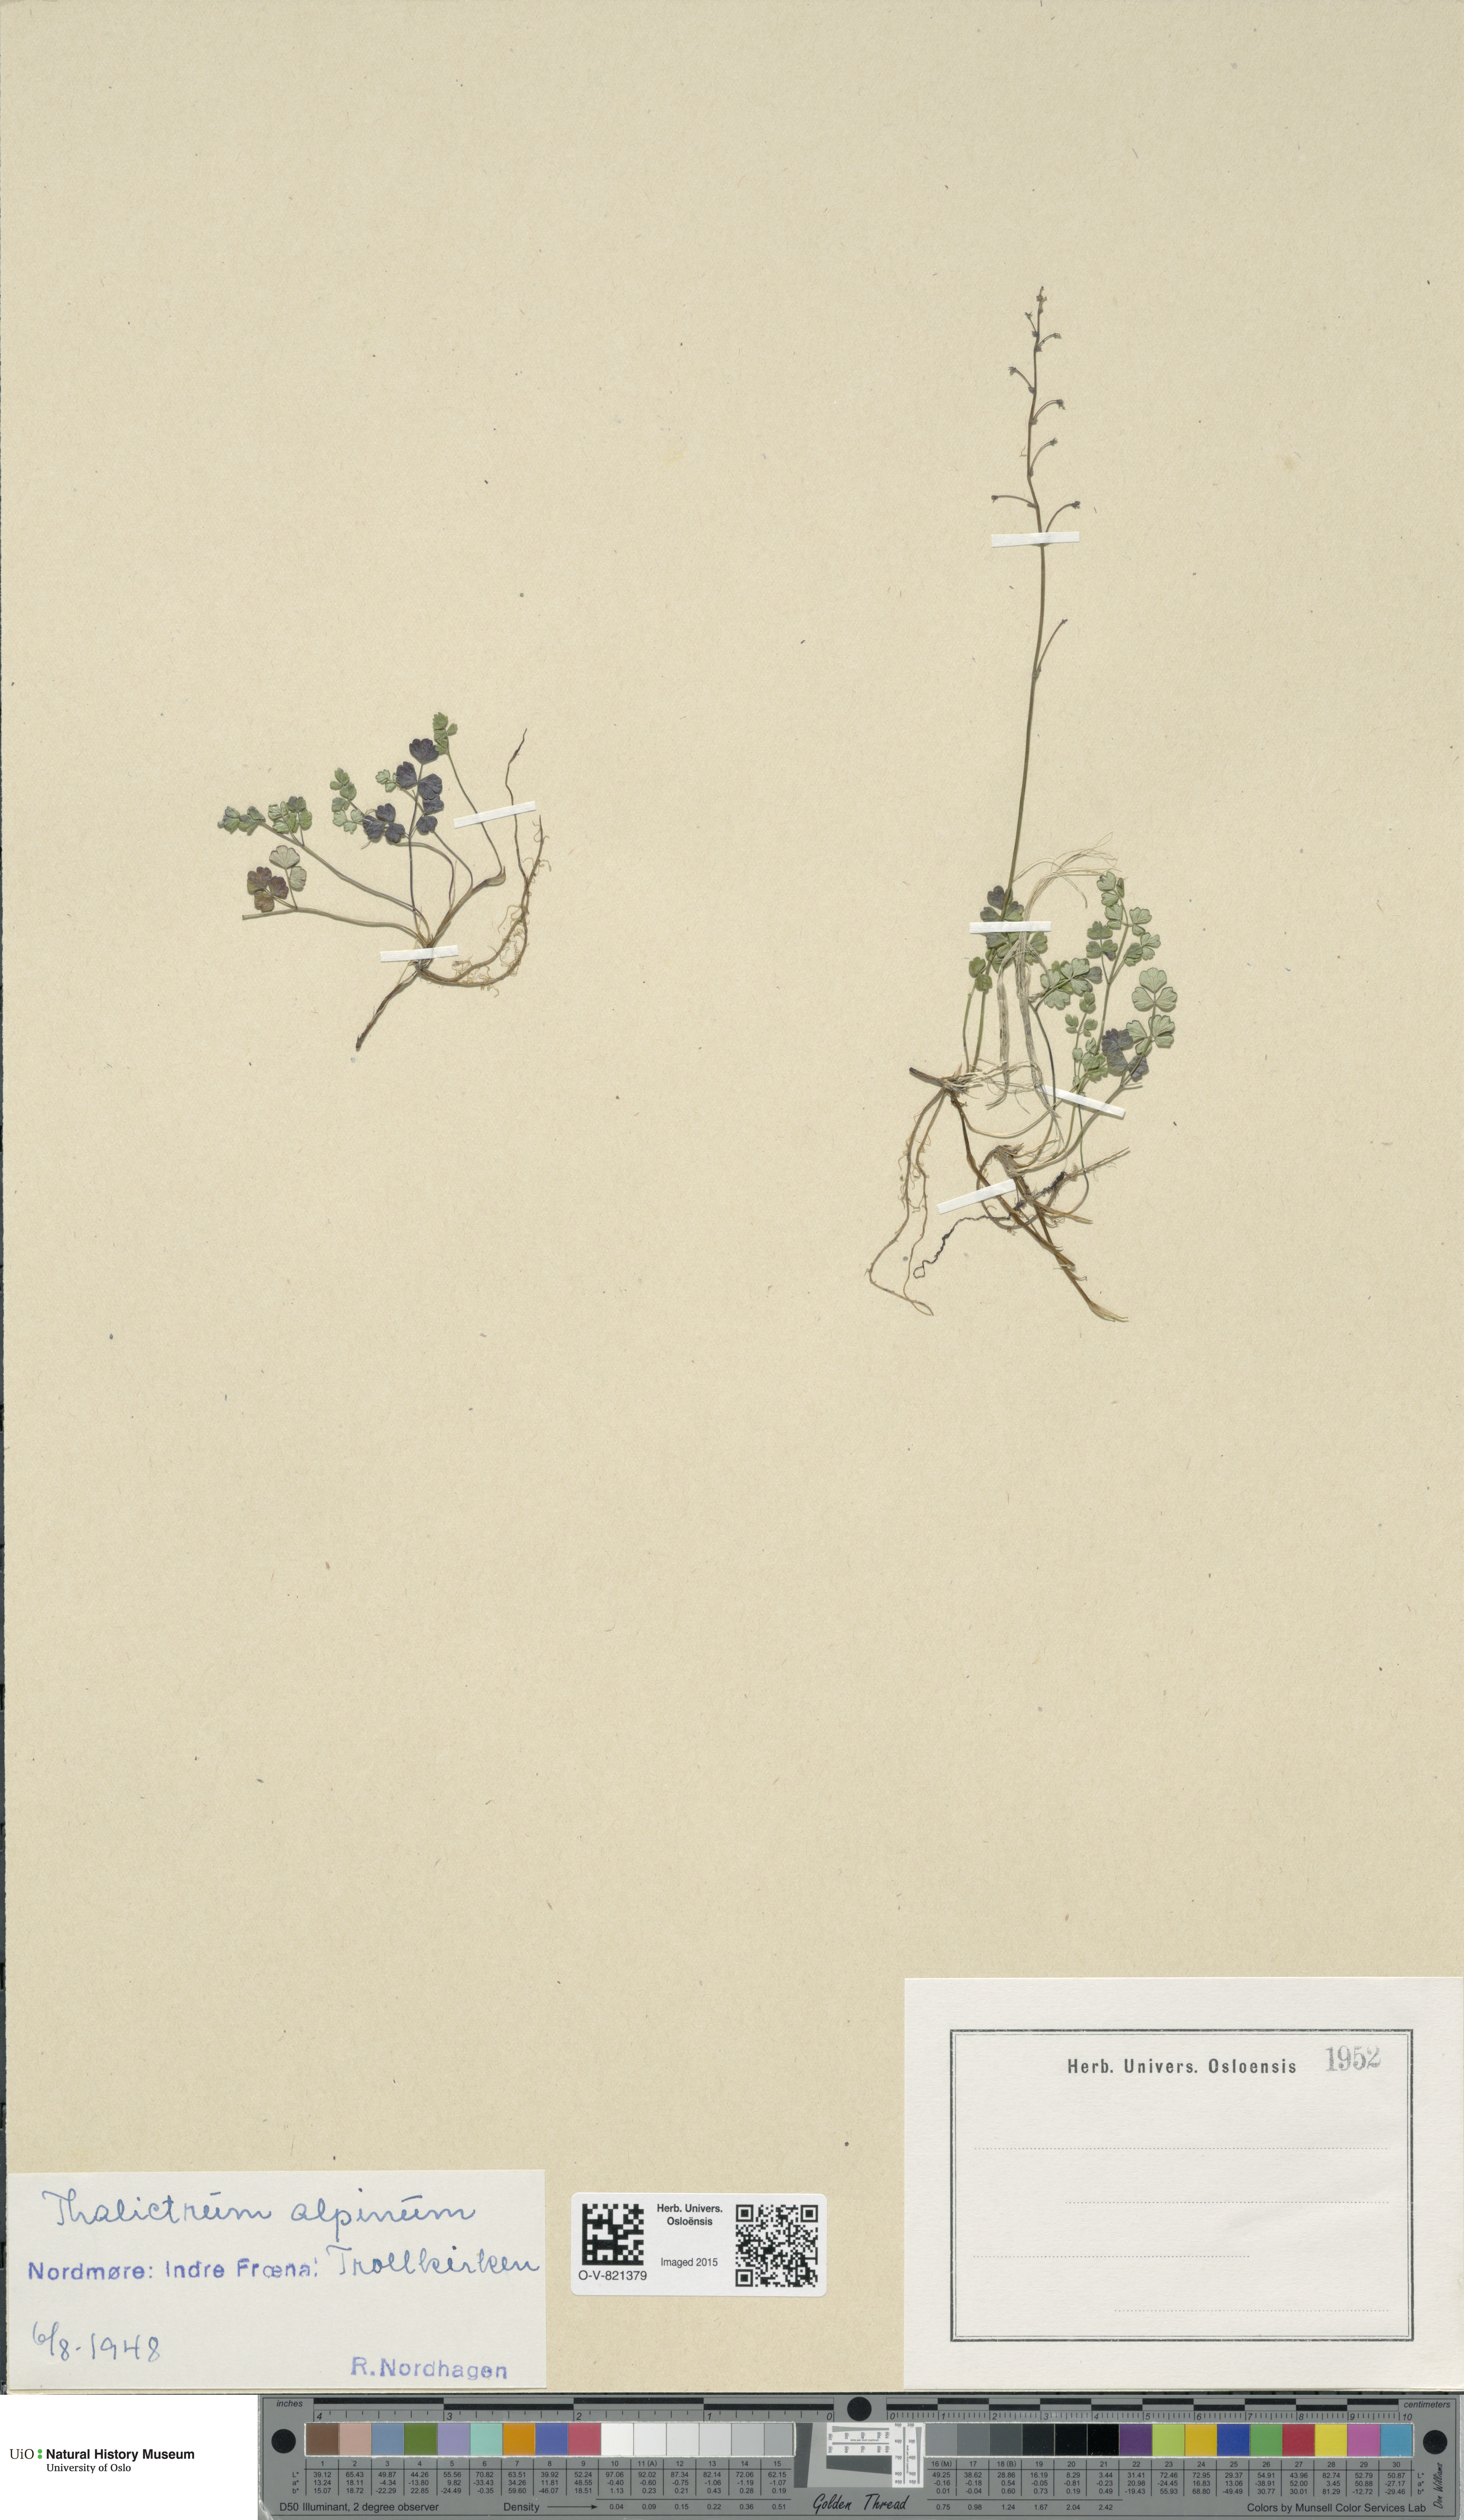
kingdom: Plantae
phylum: Tracheophyta
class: Magnoliopsida
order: Ranunculales
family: Ranunculaceae
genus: Thalictrum
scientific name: Thalictrum alpinum
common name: Alpine meadow-rue
